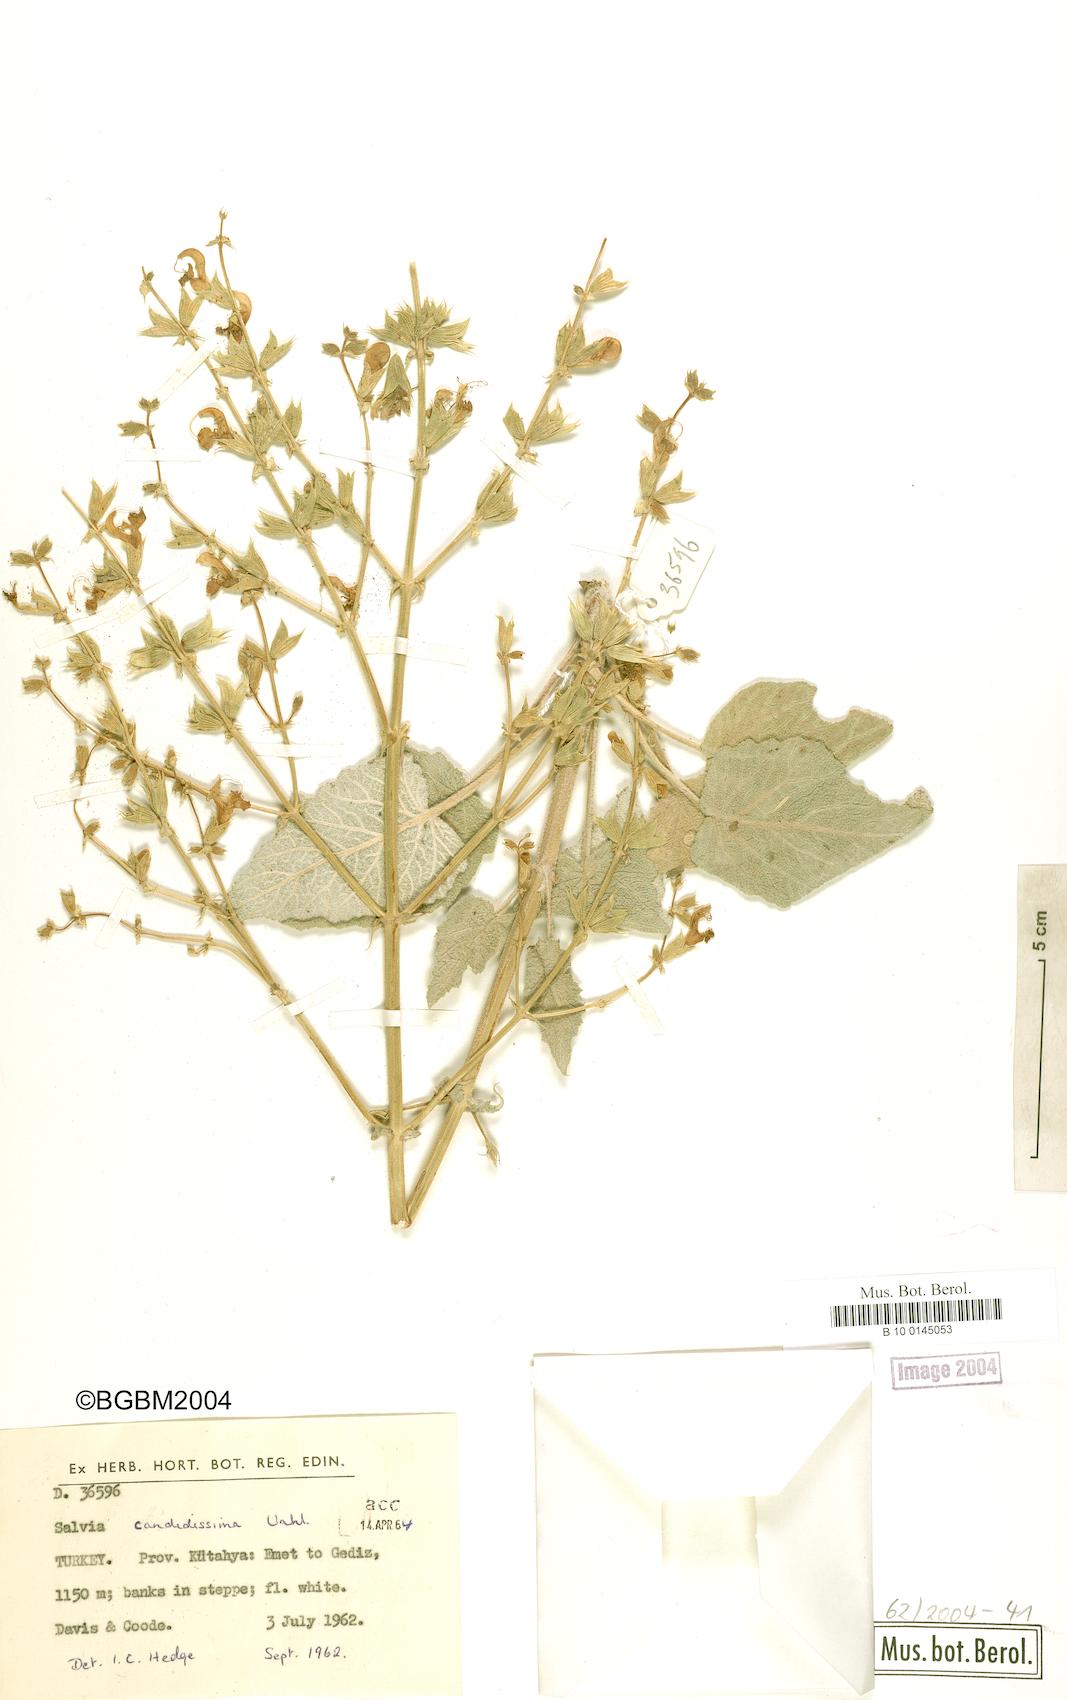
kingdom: Plantae
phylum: Tracheophyta
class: Magnoliopsida
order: Lamiales
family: Lamiaceae
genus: Salvia
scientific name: Salvia candidissima
